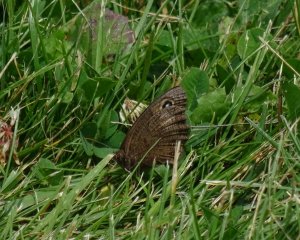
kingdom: Animalia
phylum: Arthropoda
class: Insecta
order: Lepidoptera
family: Nymphalidae
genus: Cercyonis
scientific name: Cercyonis pegala
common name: Common Wood-Nymph
